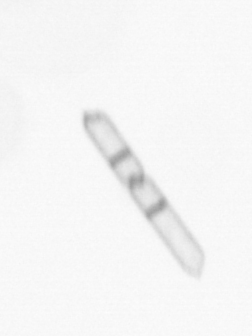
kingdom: Chromista
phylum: Ochrophyta
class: Bacillariophyceae
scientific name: Bacillariophyceae
